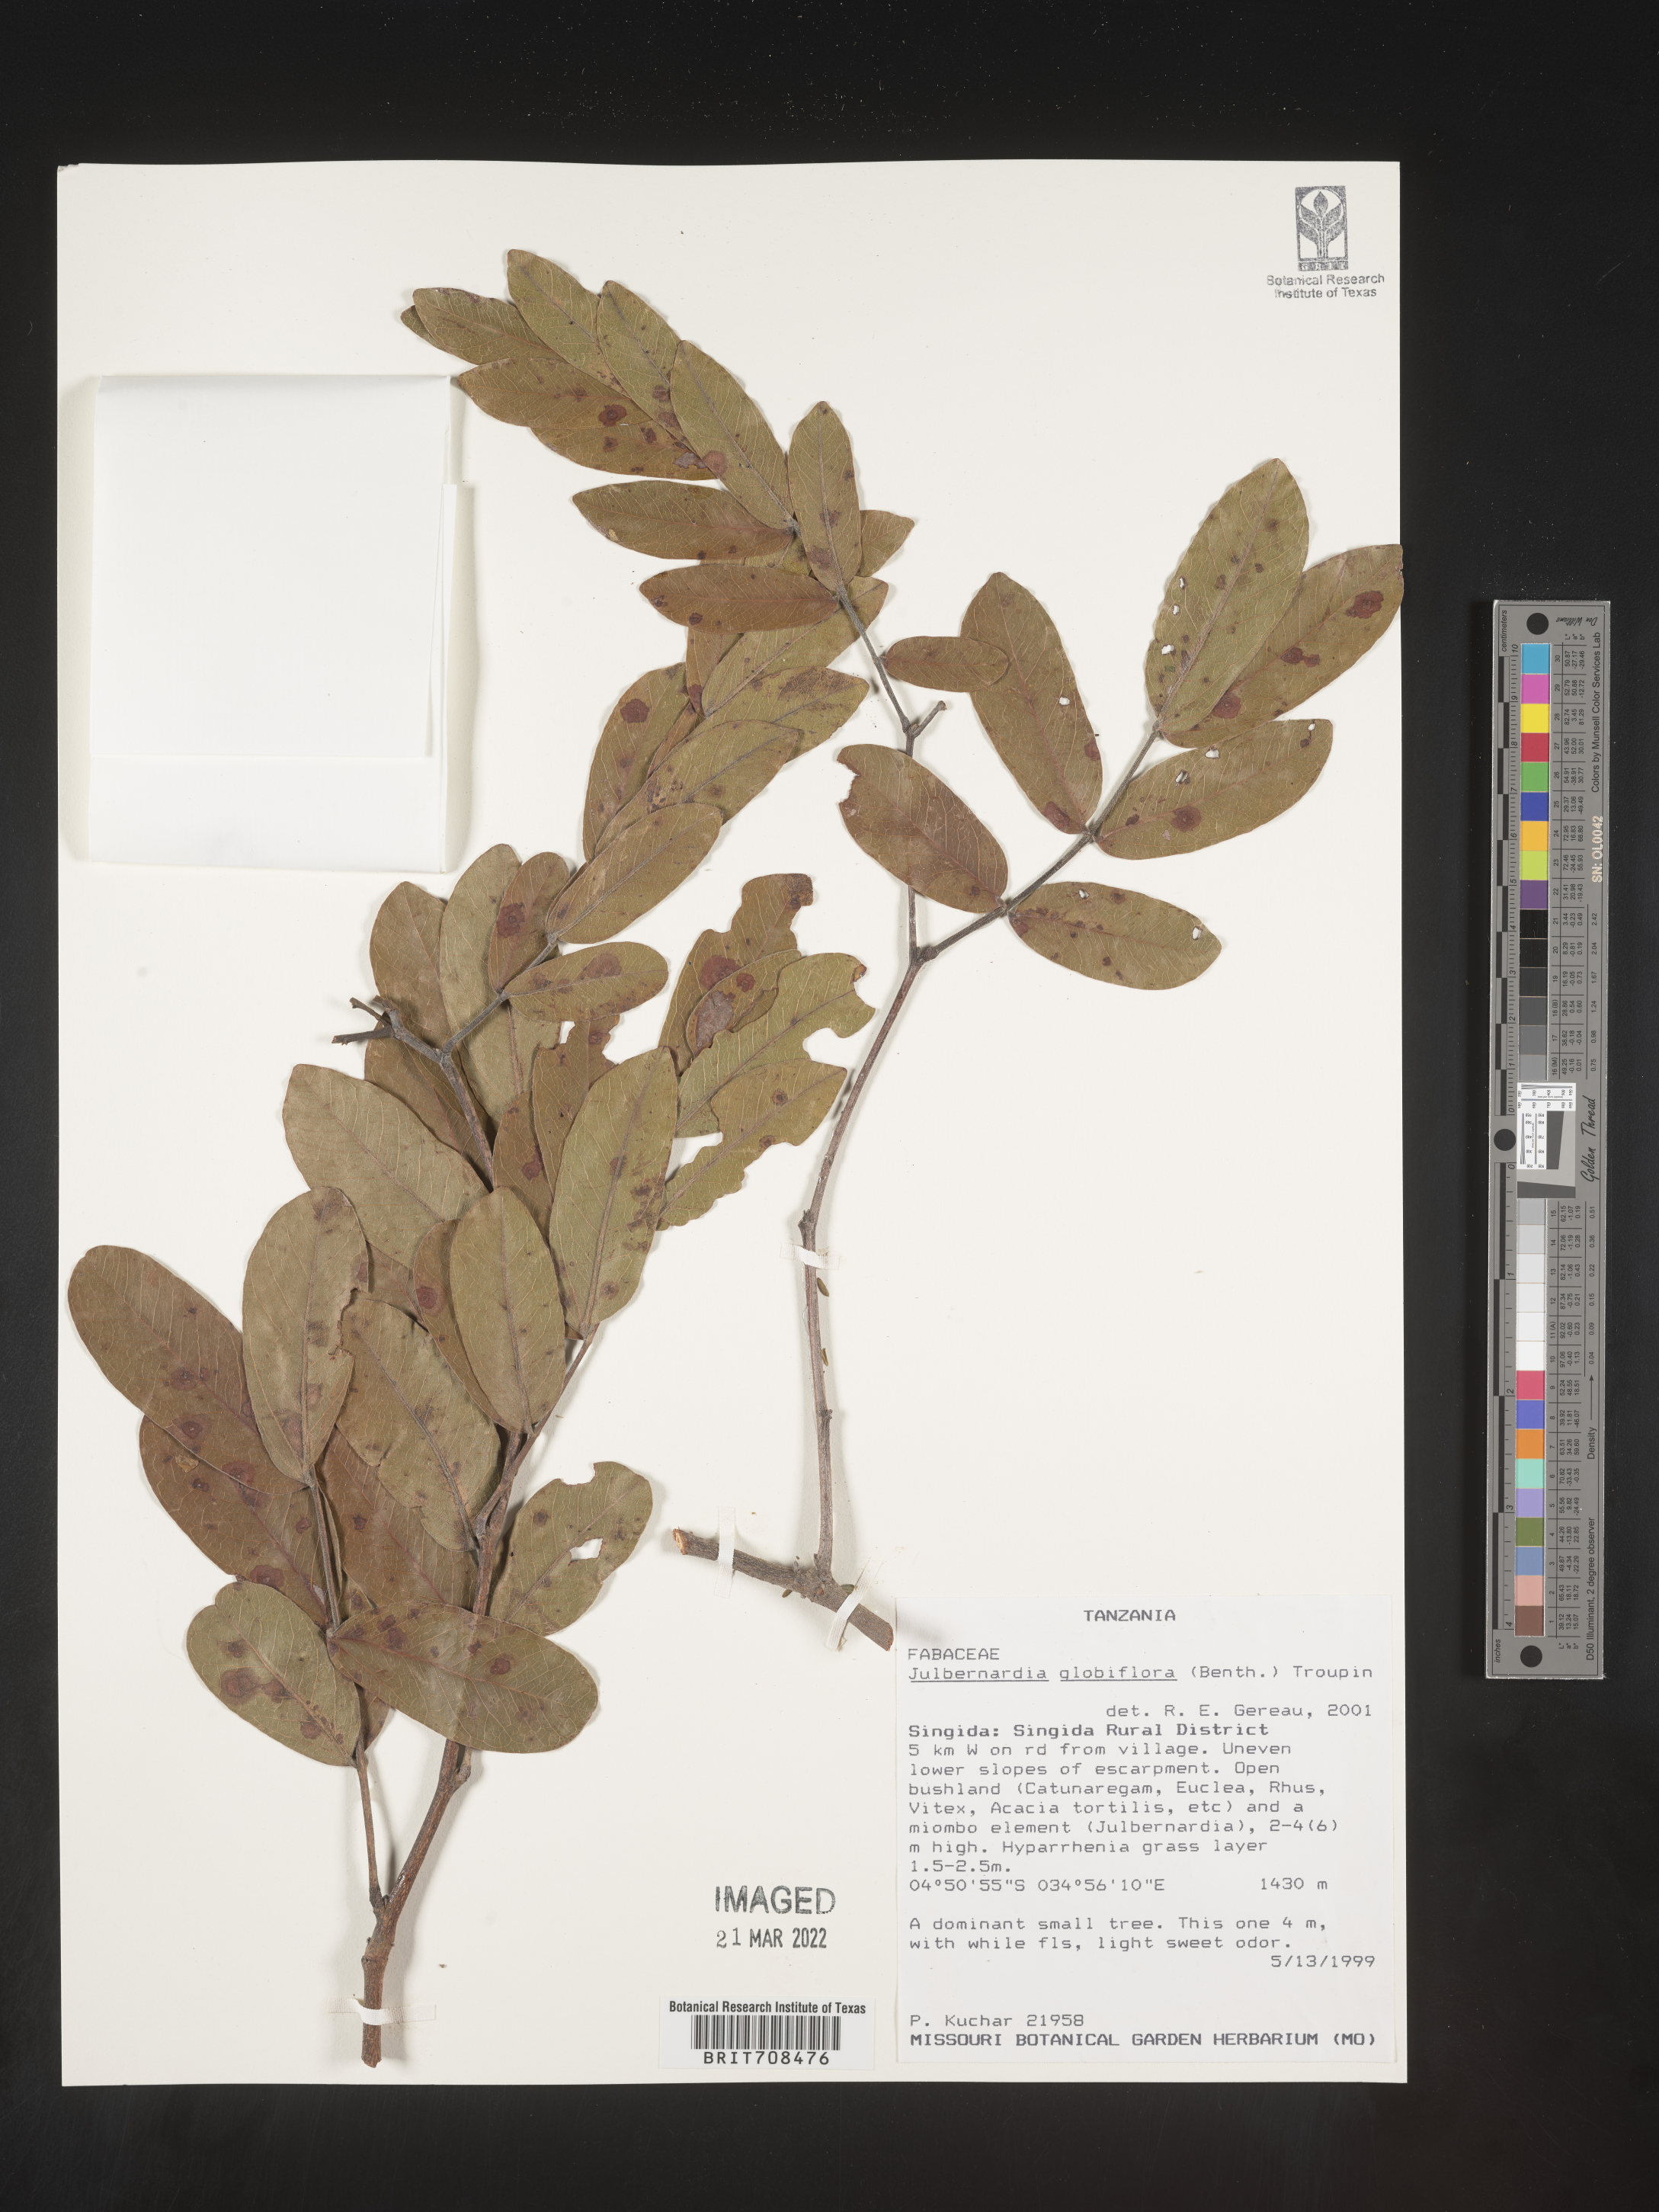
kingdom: Plantae
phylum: Tracheophyta
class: Magnoliopsida
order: Fabales
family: Fabaceae
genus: Julbernardia
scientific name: Julbernardia
